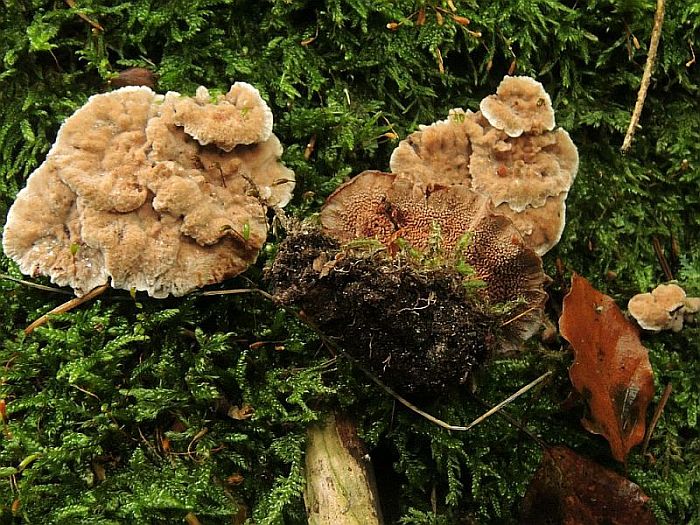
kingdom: Fungi
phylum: Basidiomycota
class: Agaricomycetes
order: Thelephorales
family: Bankeraceae
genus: Hydnellum
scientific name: Hydnellum cumulatum
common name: Rosette tooth
